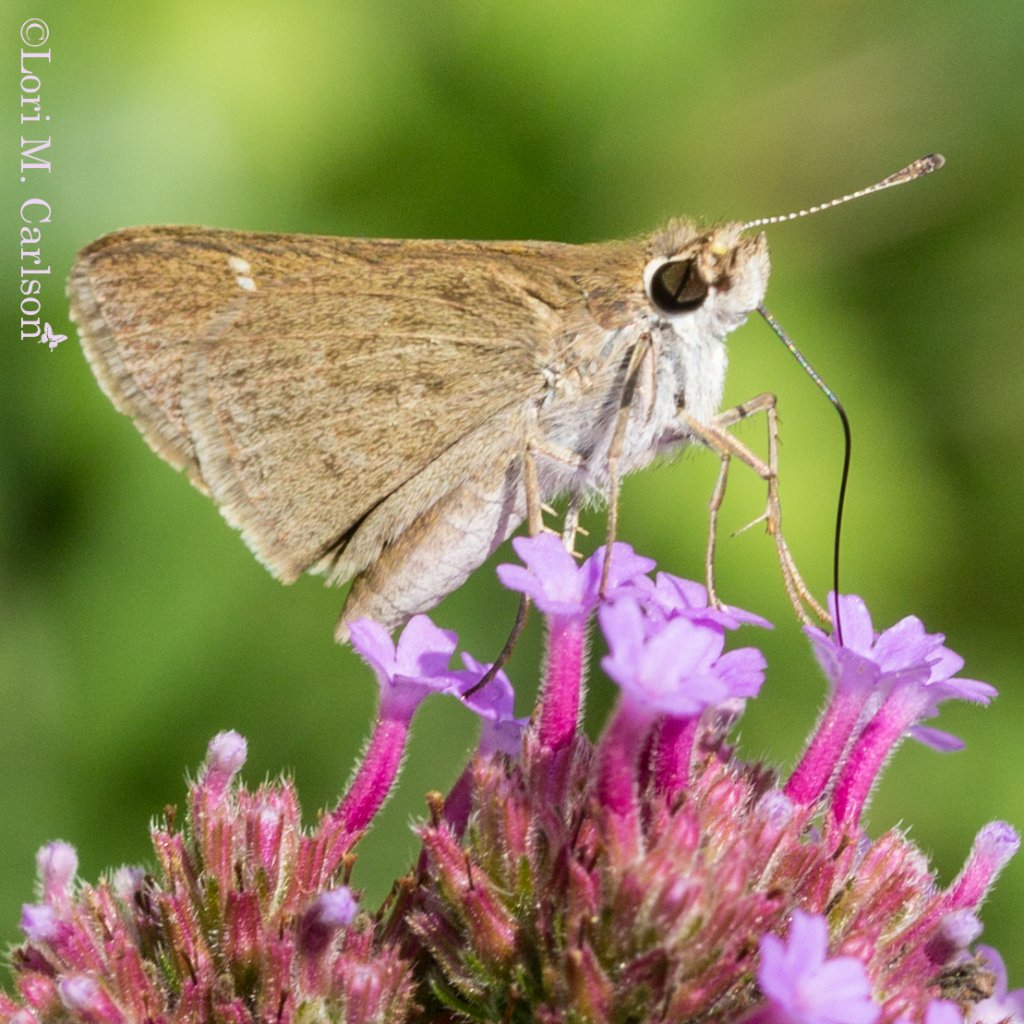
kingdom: Animalia
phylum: Arthropoda
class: Insecta
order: Lepidoptera
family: Hesperiidae
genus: Lerodea
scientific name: Lerodea eufala
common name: Eufala Skipper
